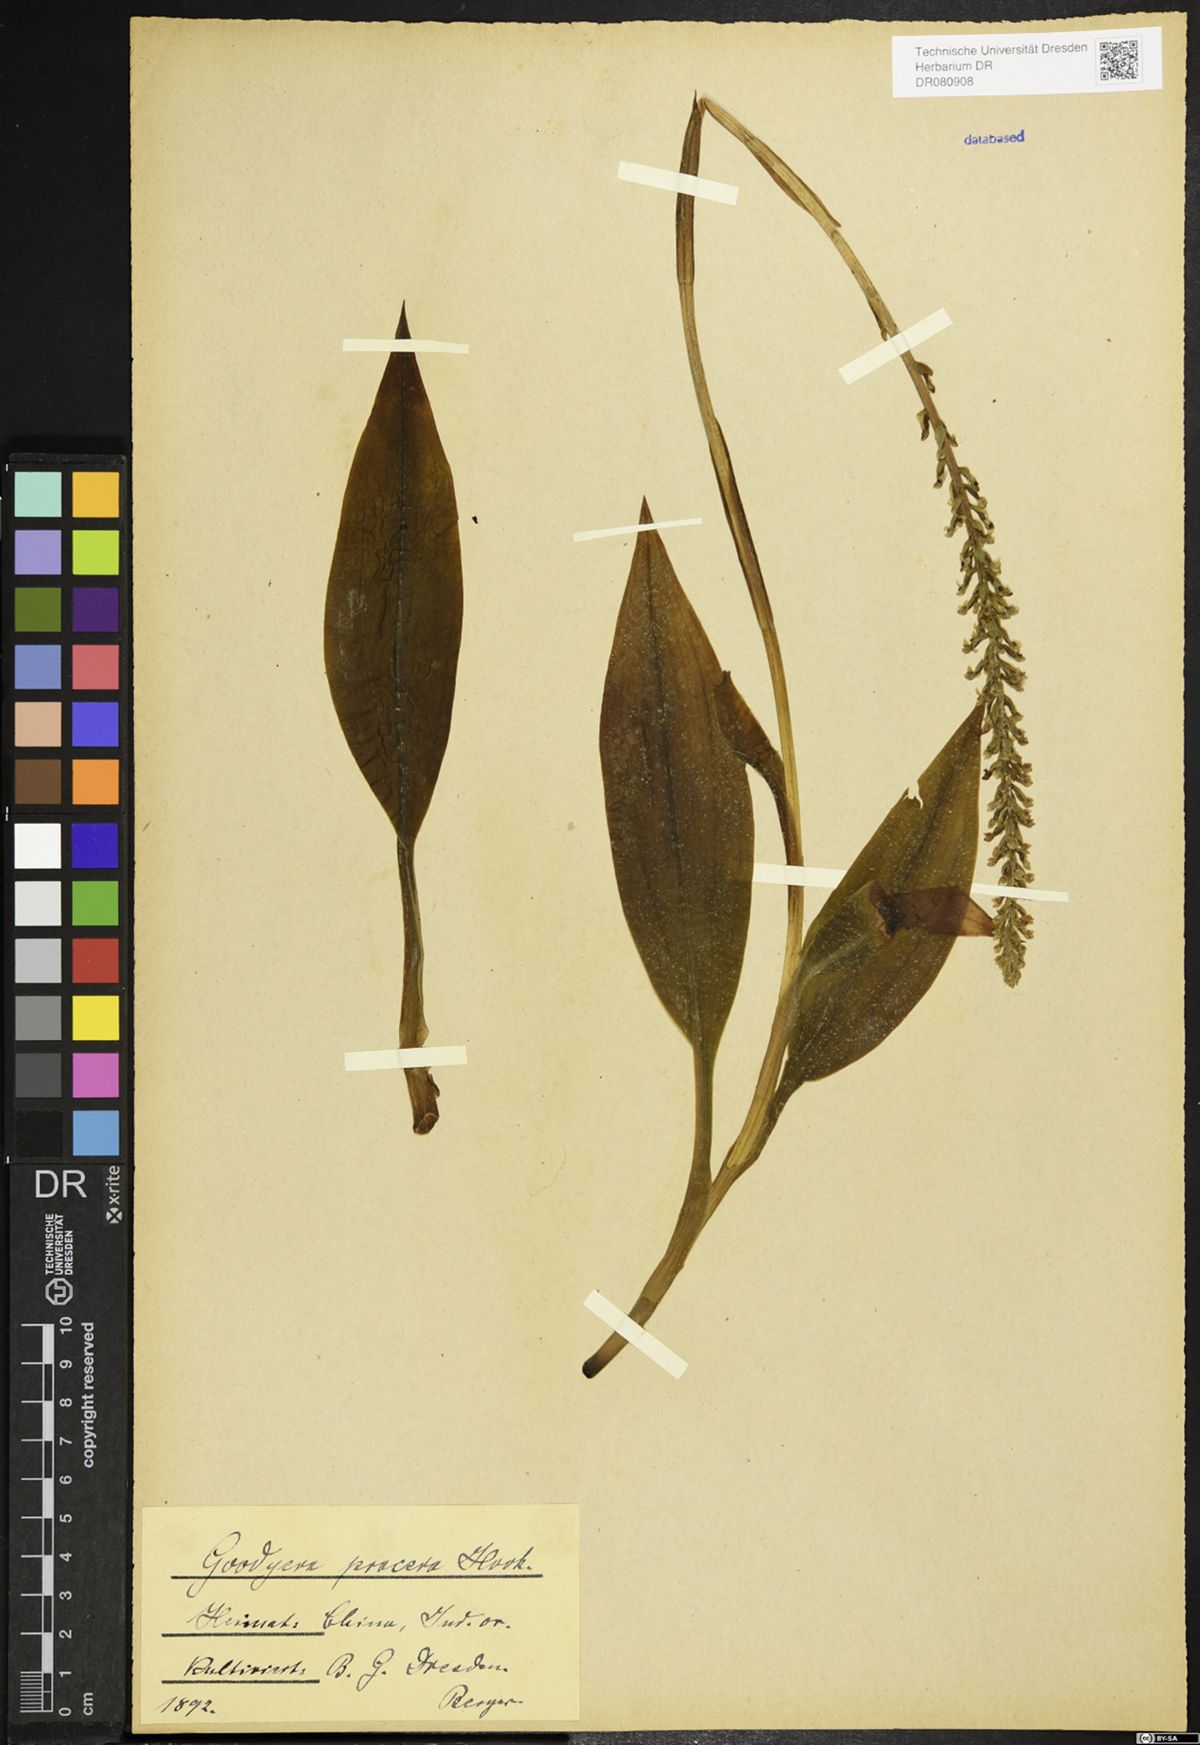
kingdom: Plantae
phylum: Tracheophyta
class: Liliopsida
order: Asparagales
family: Orchidaceae
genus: Goodyera
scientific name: Goodyera procera
